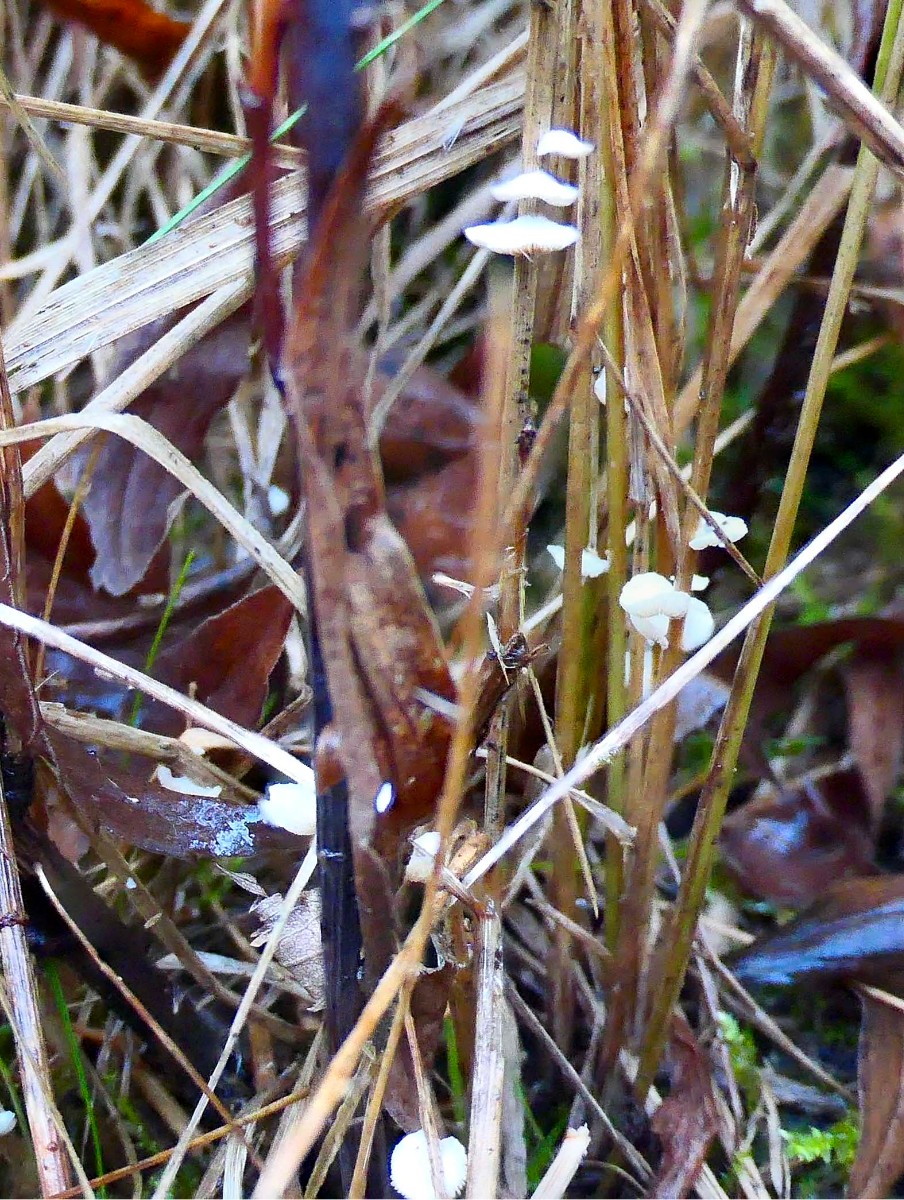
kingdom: Fungi
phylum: Basidiomycota
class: Agaricomycetes
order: Agaricales
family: Crepidotaceae
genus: Crepidotus
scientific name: Crepidotus epibryus
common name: førne-muslingesvamp
